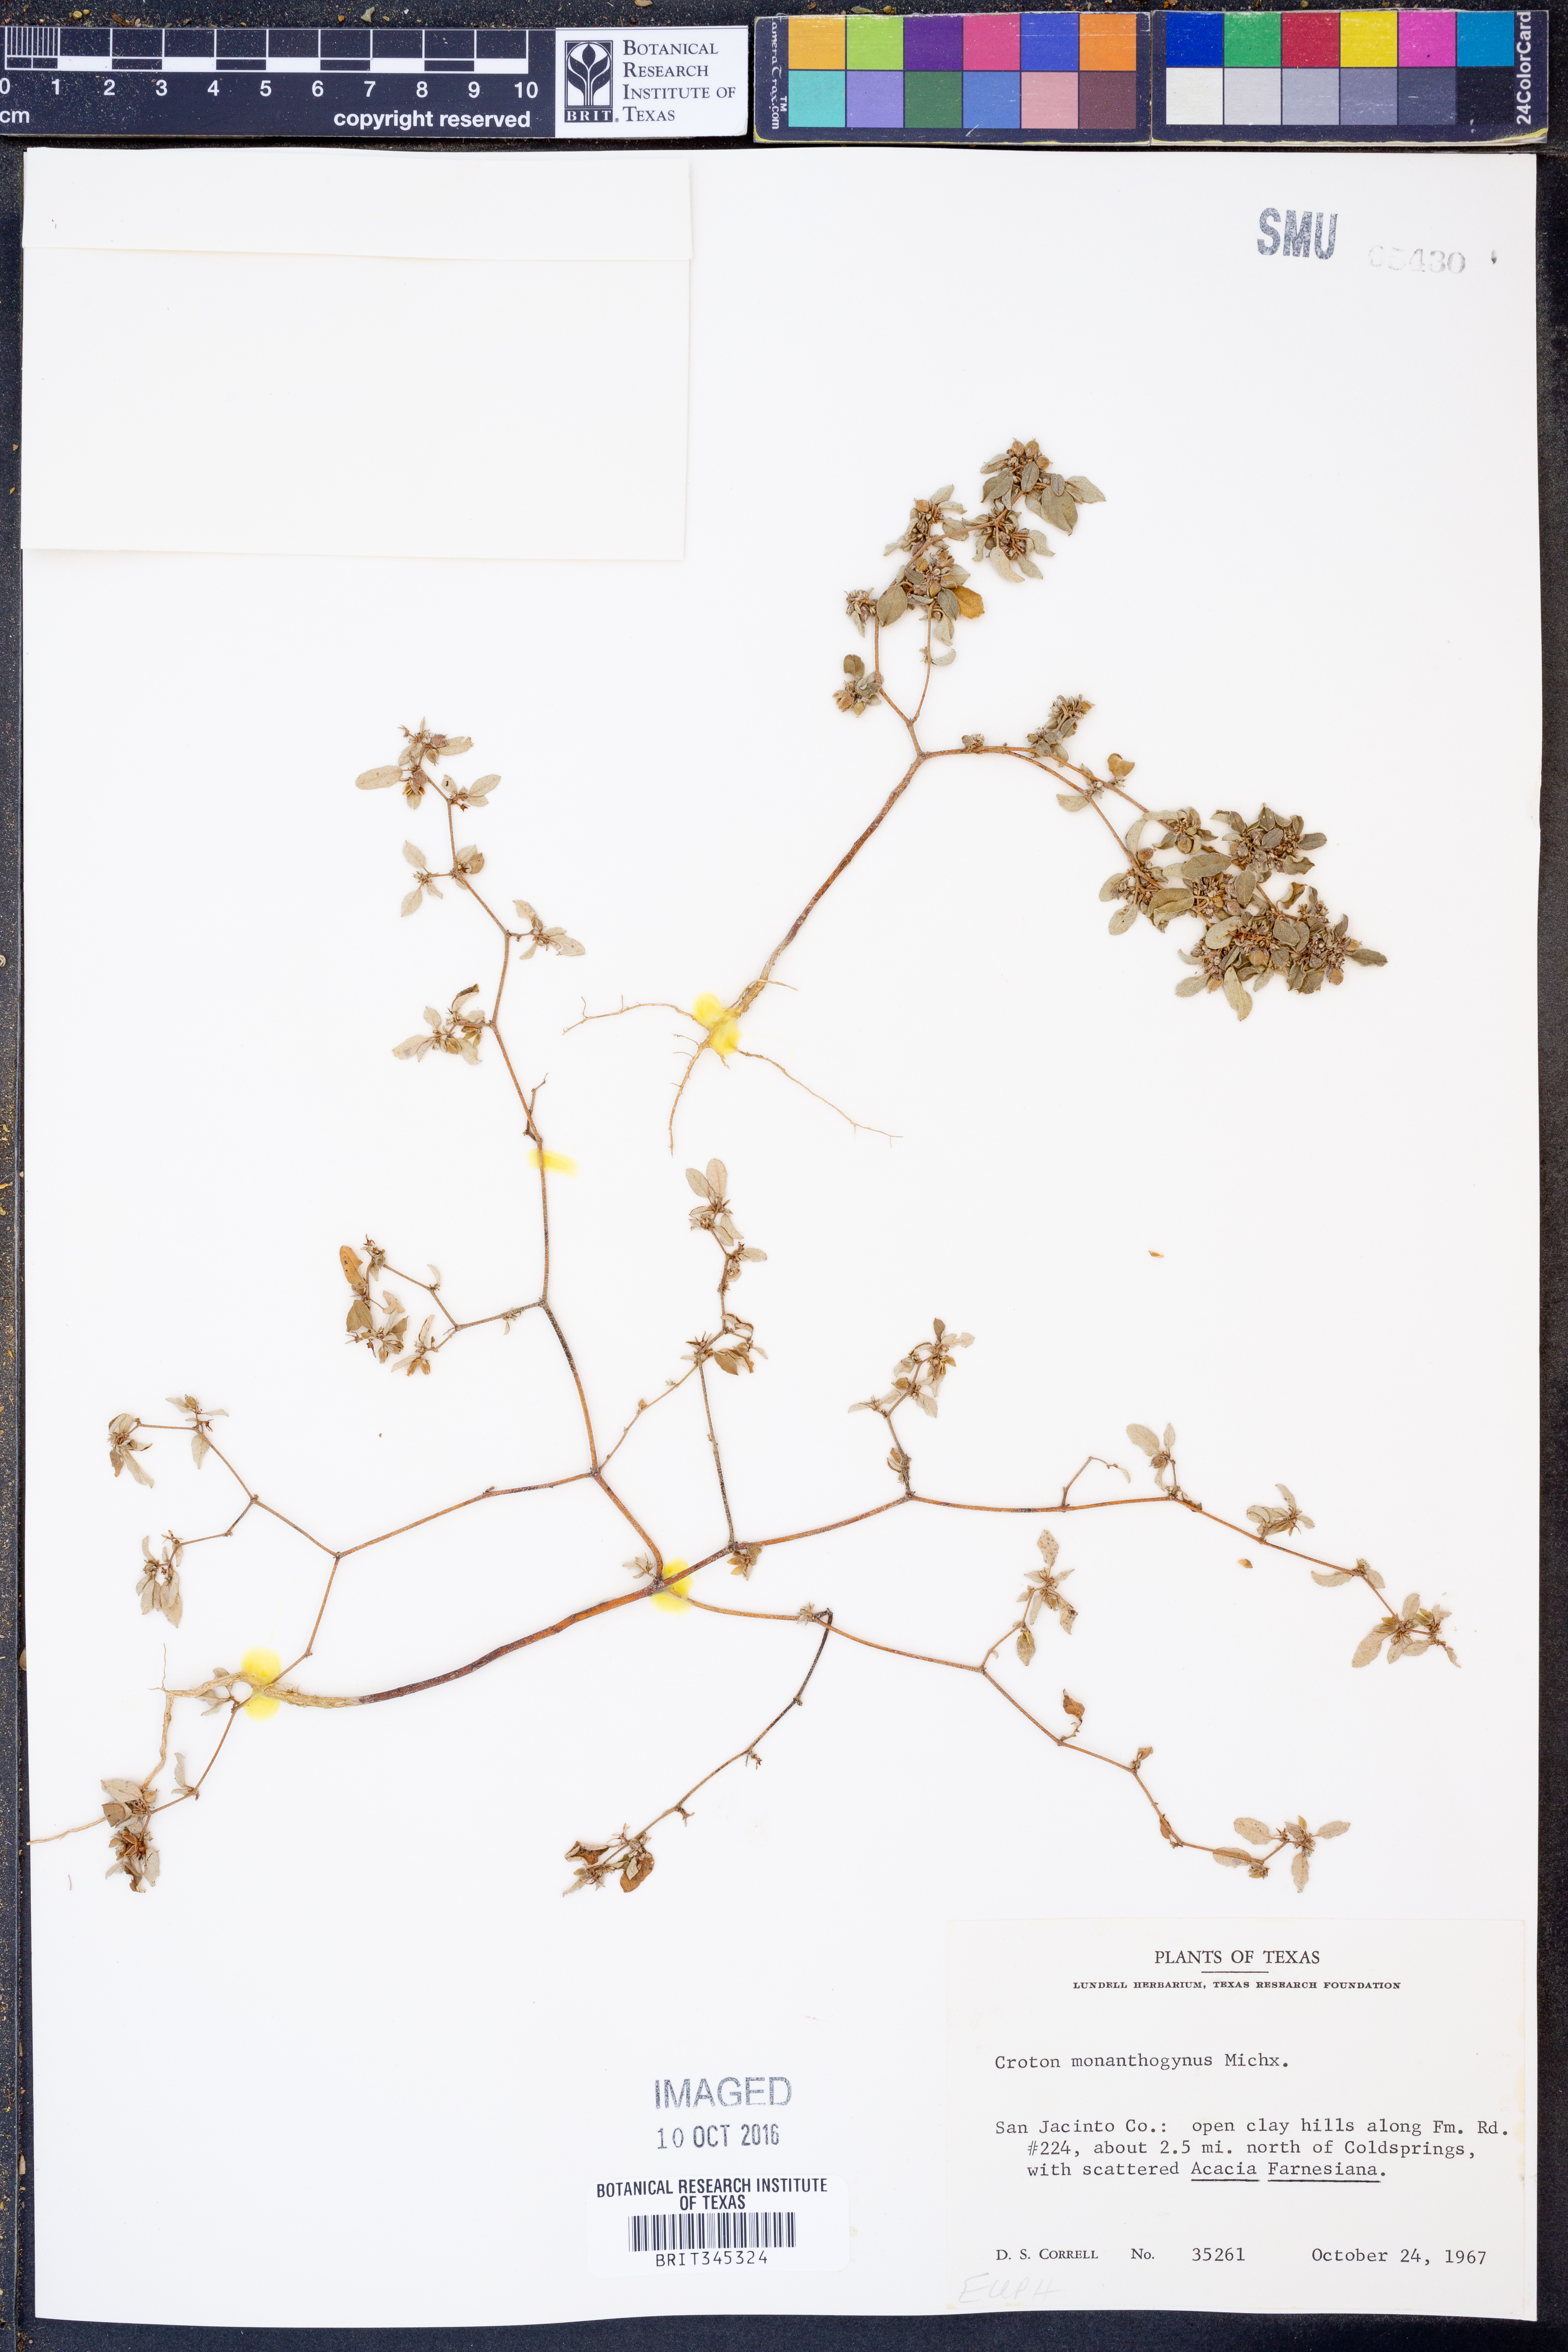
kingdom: Plantae
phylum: Tracheophyta
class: Magnoliopsida
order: Malpighiales
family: Euphorbiaceae
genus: Croton
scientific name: Croton monanthogynus
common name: One-seed croton
